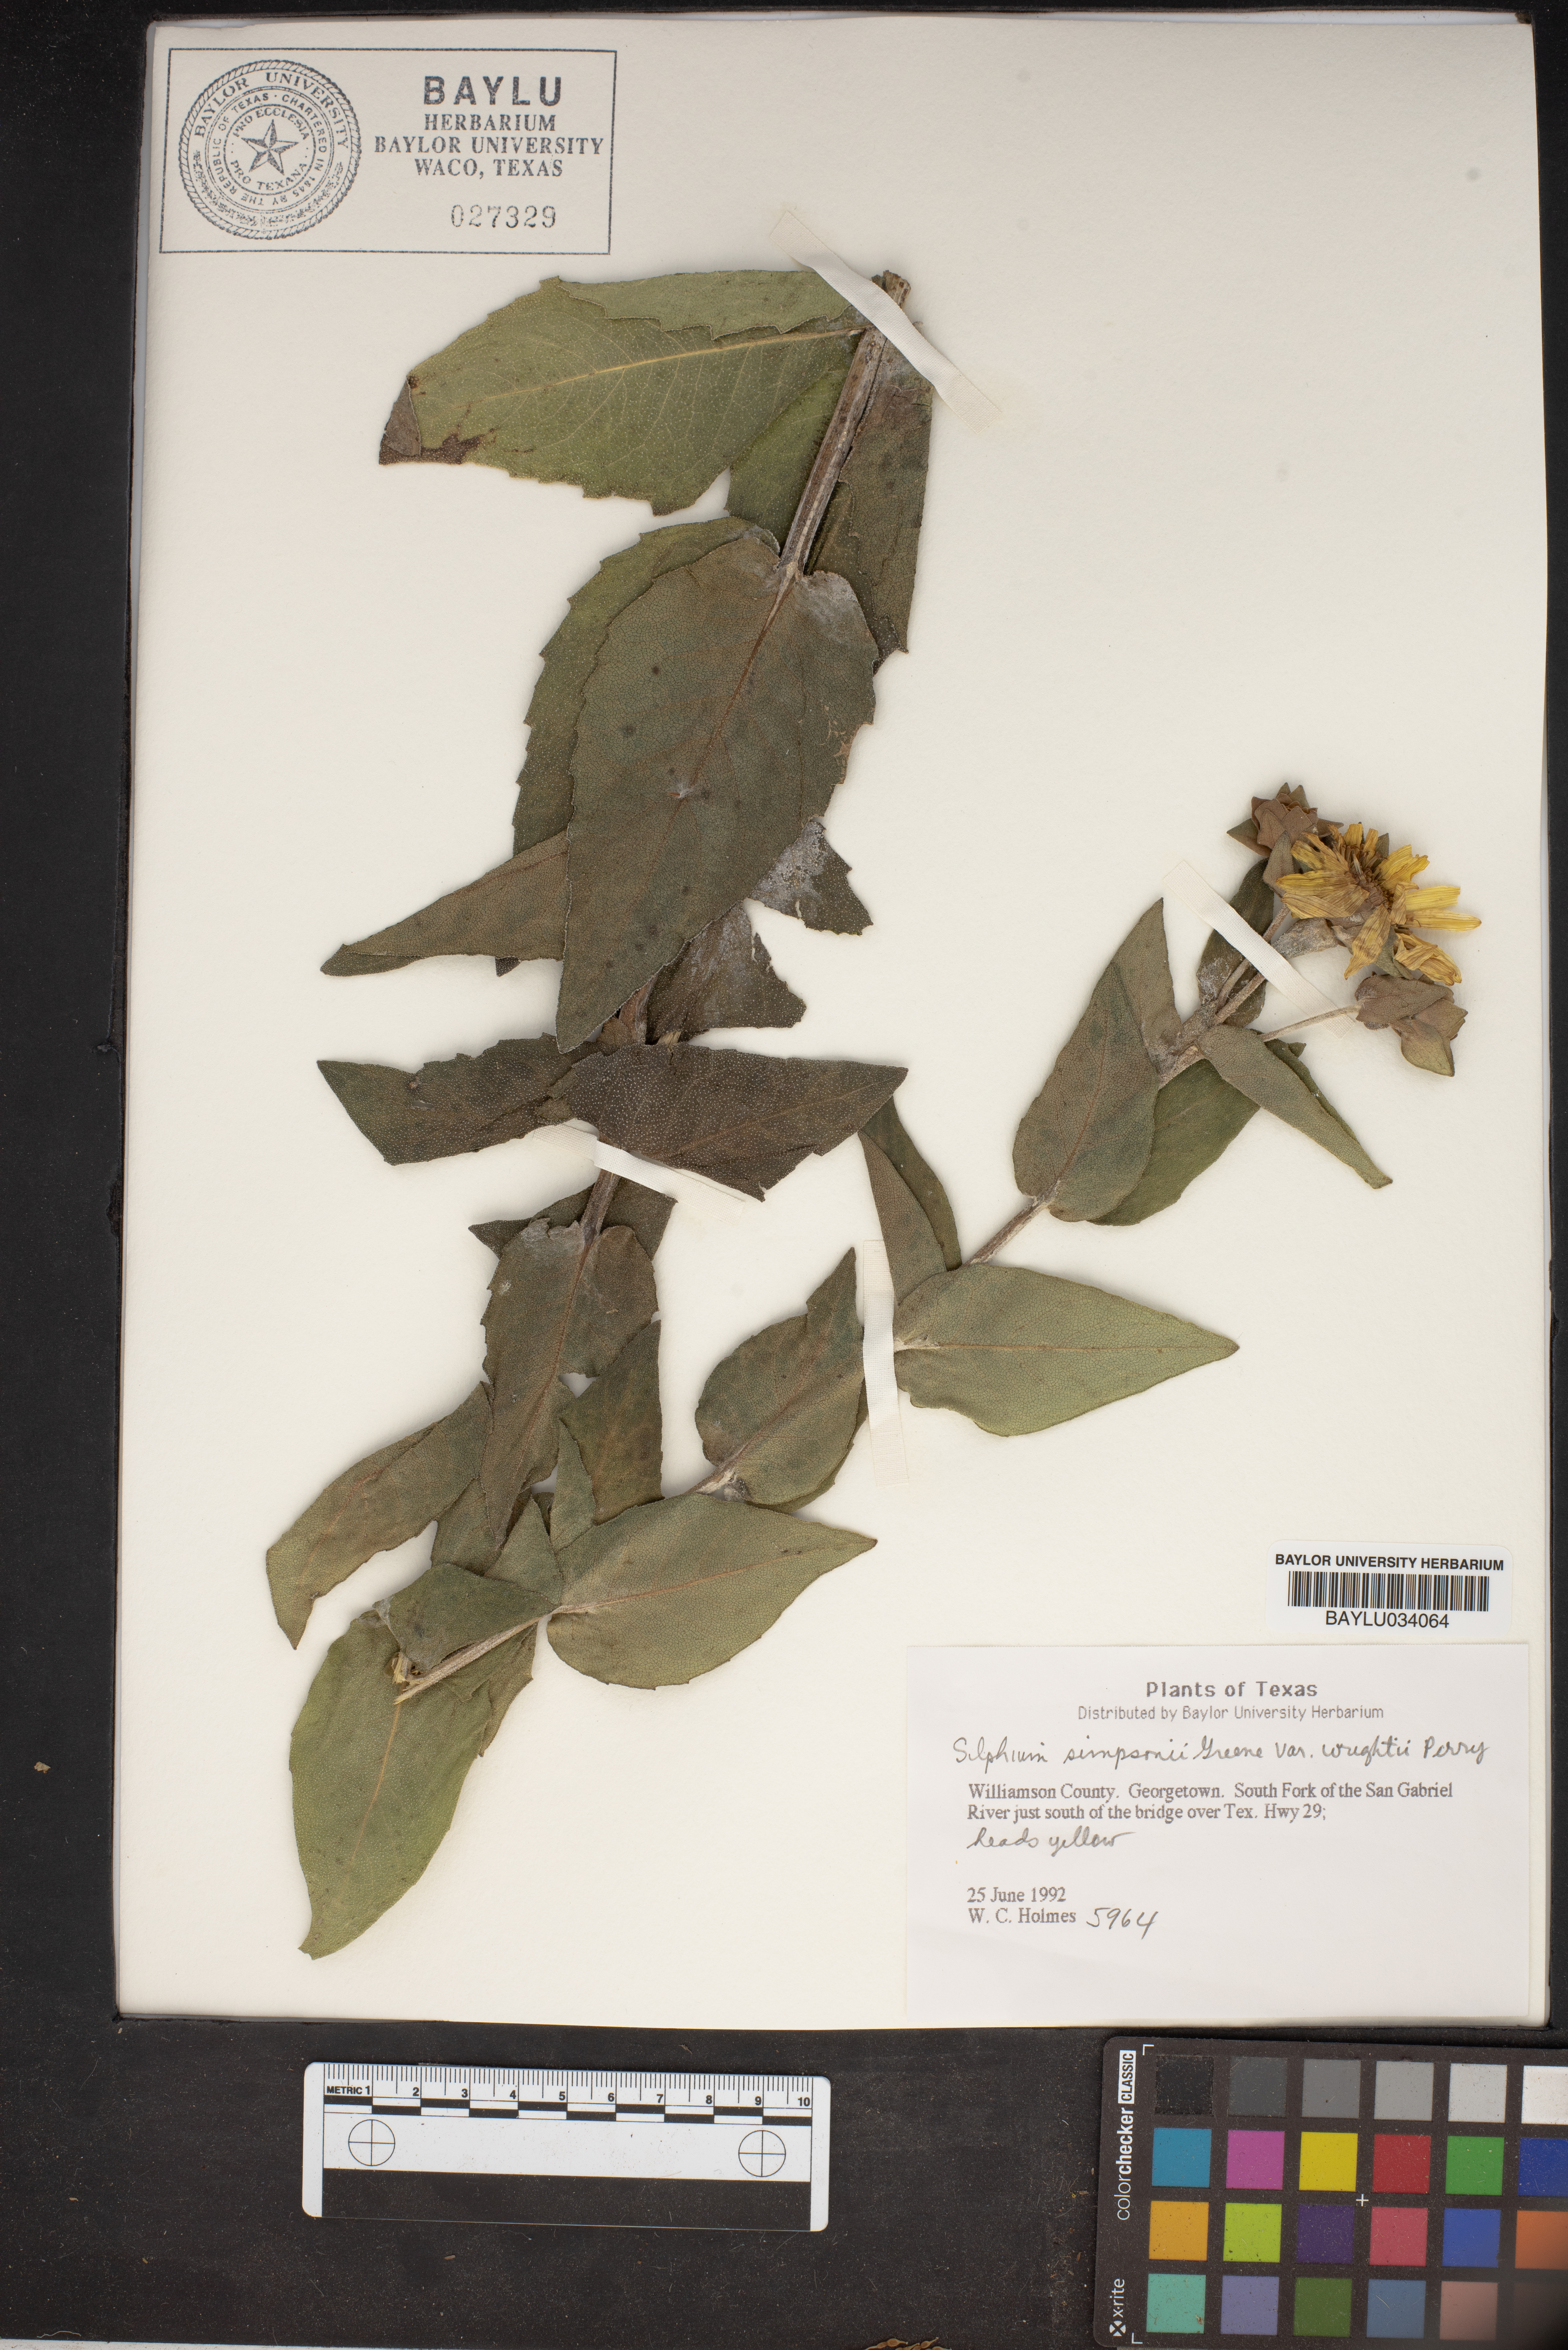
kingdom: Plantae
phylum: Tracheophyta
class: Magnoliopsida
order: Asterales
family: Asteraceae
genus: Silphium
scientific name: Silphium radula
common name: Roughleaf rosinweed
